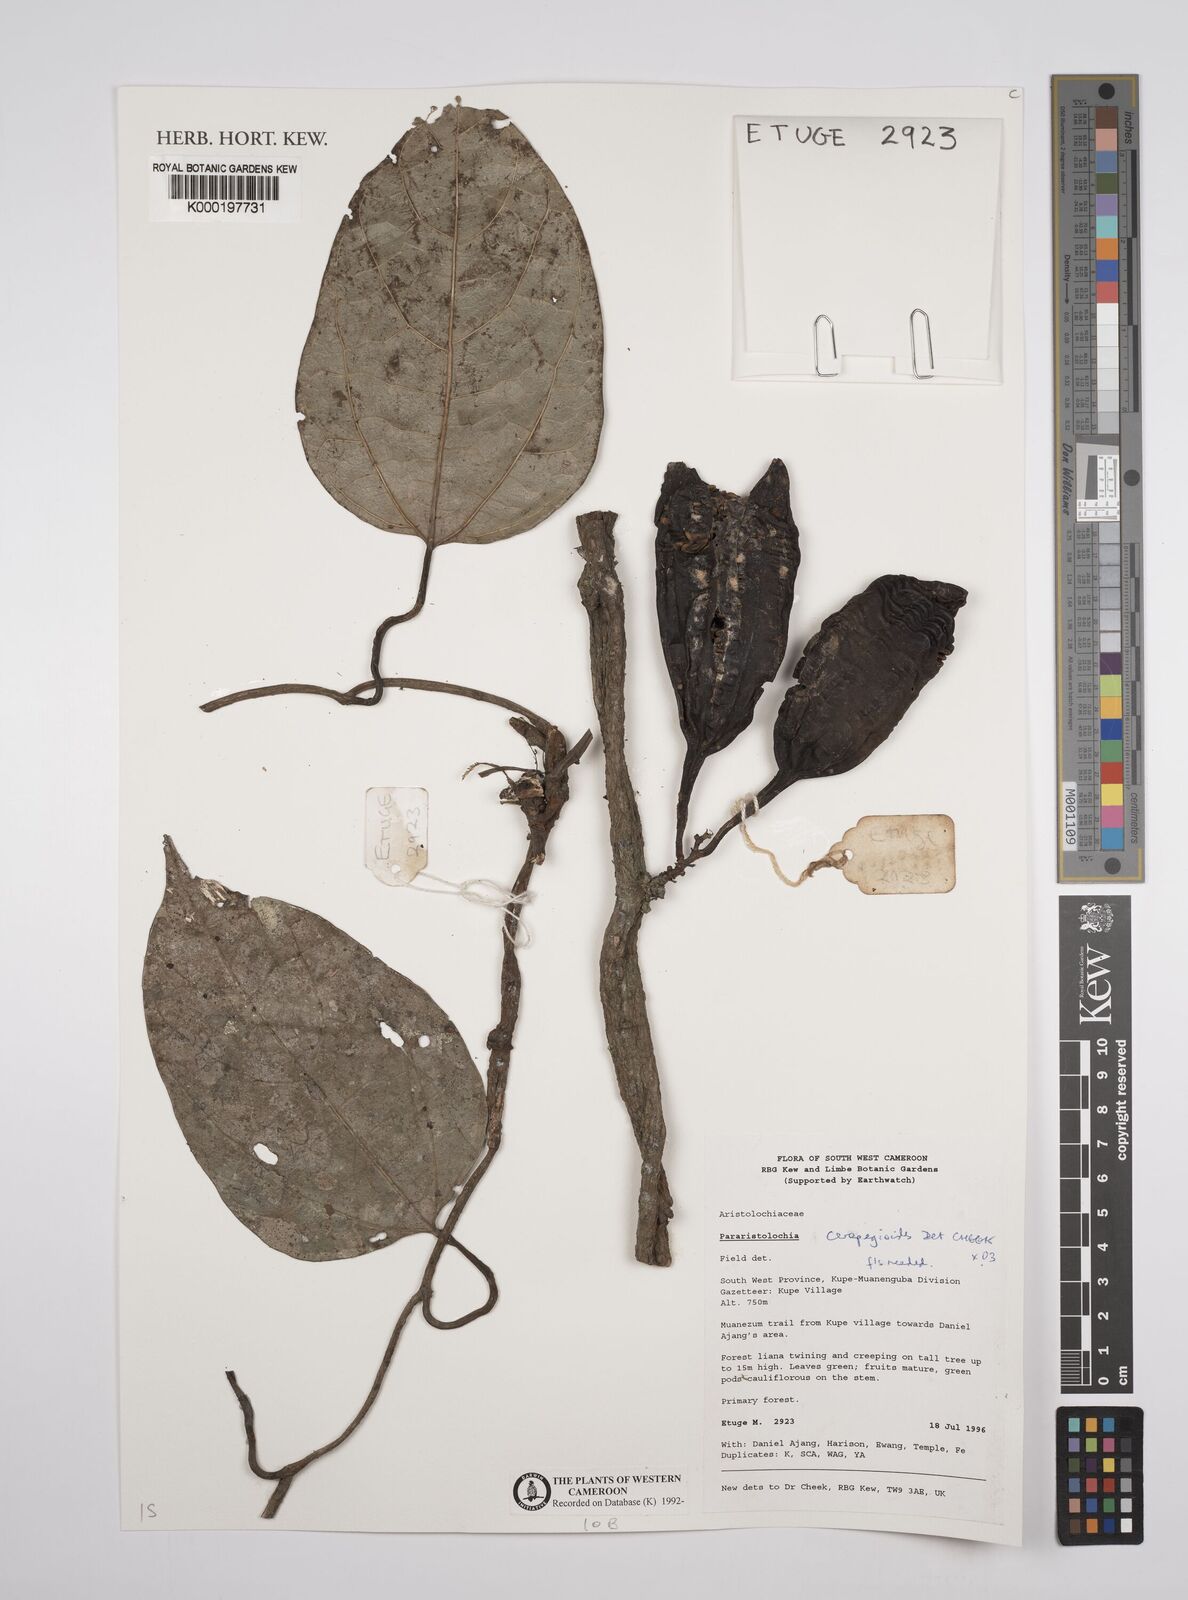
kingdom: Plantae
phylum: Tracheophyta
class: Magnoliopsida
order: Piperales
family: Aristolochiaceae
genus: Aristolochia
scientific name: Aristolochia ceropegioides
